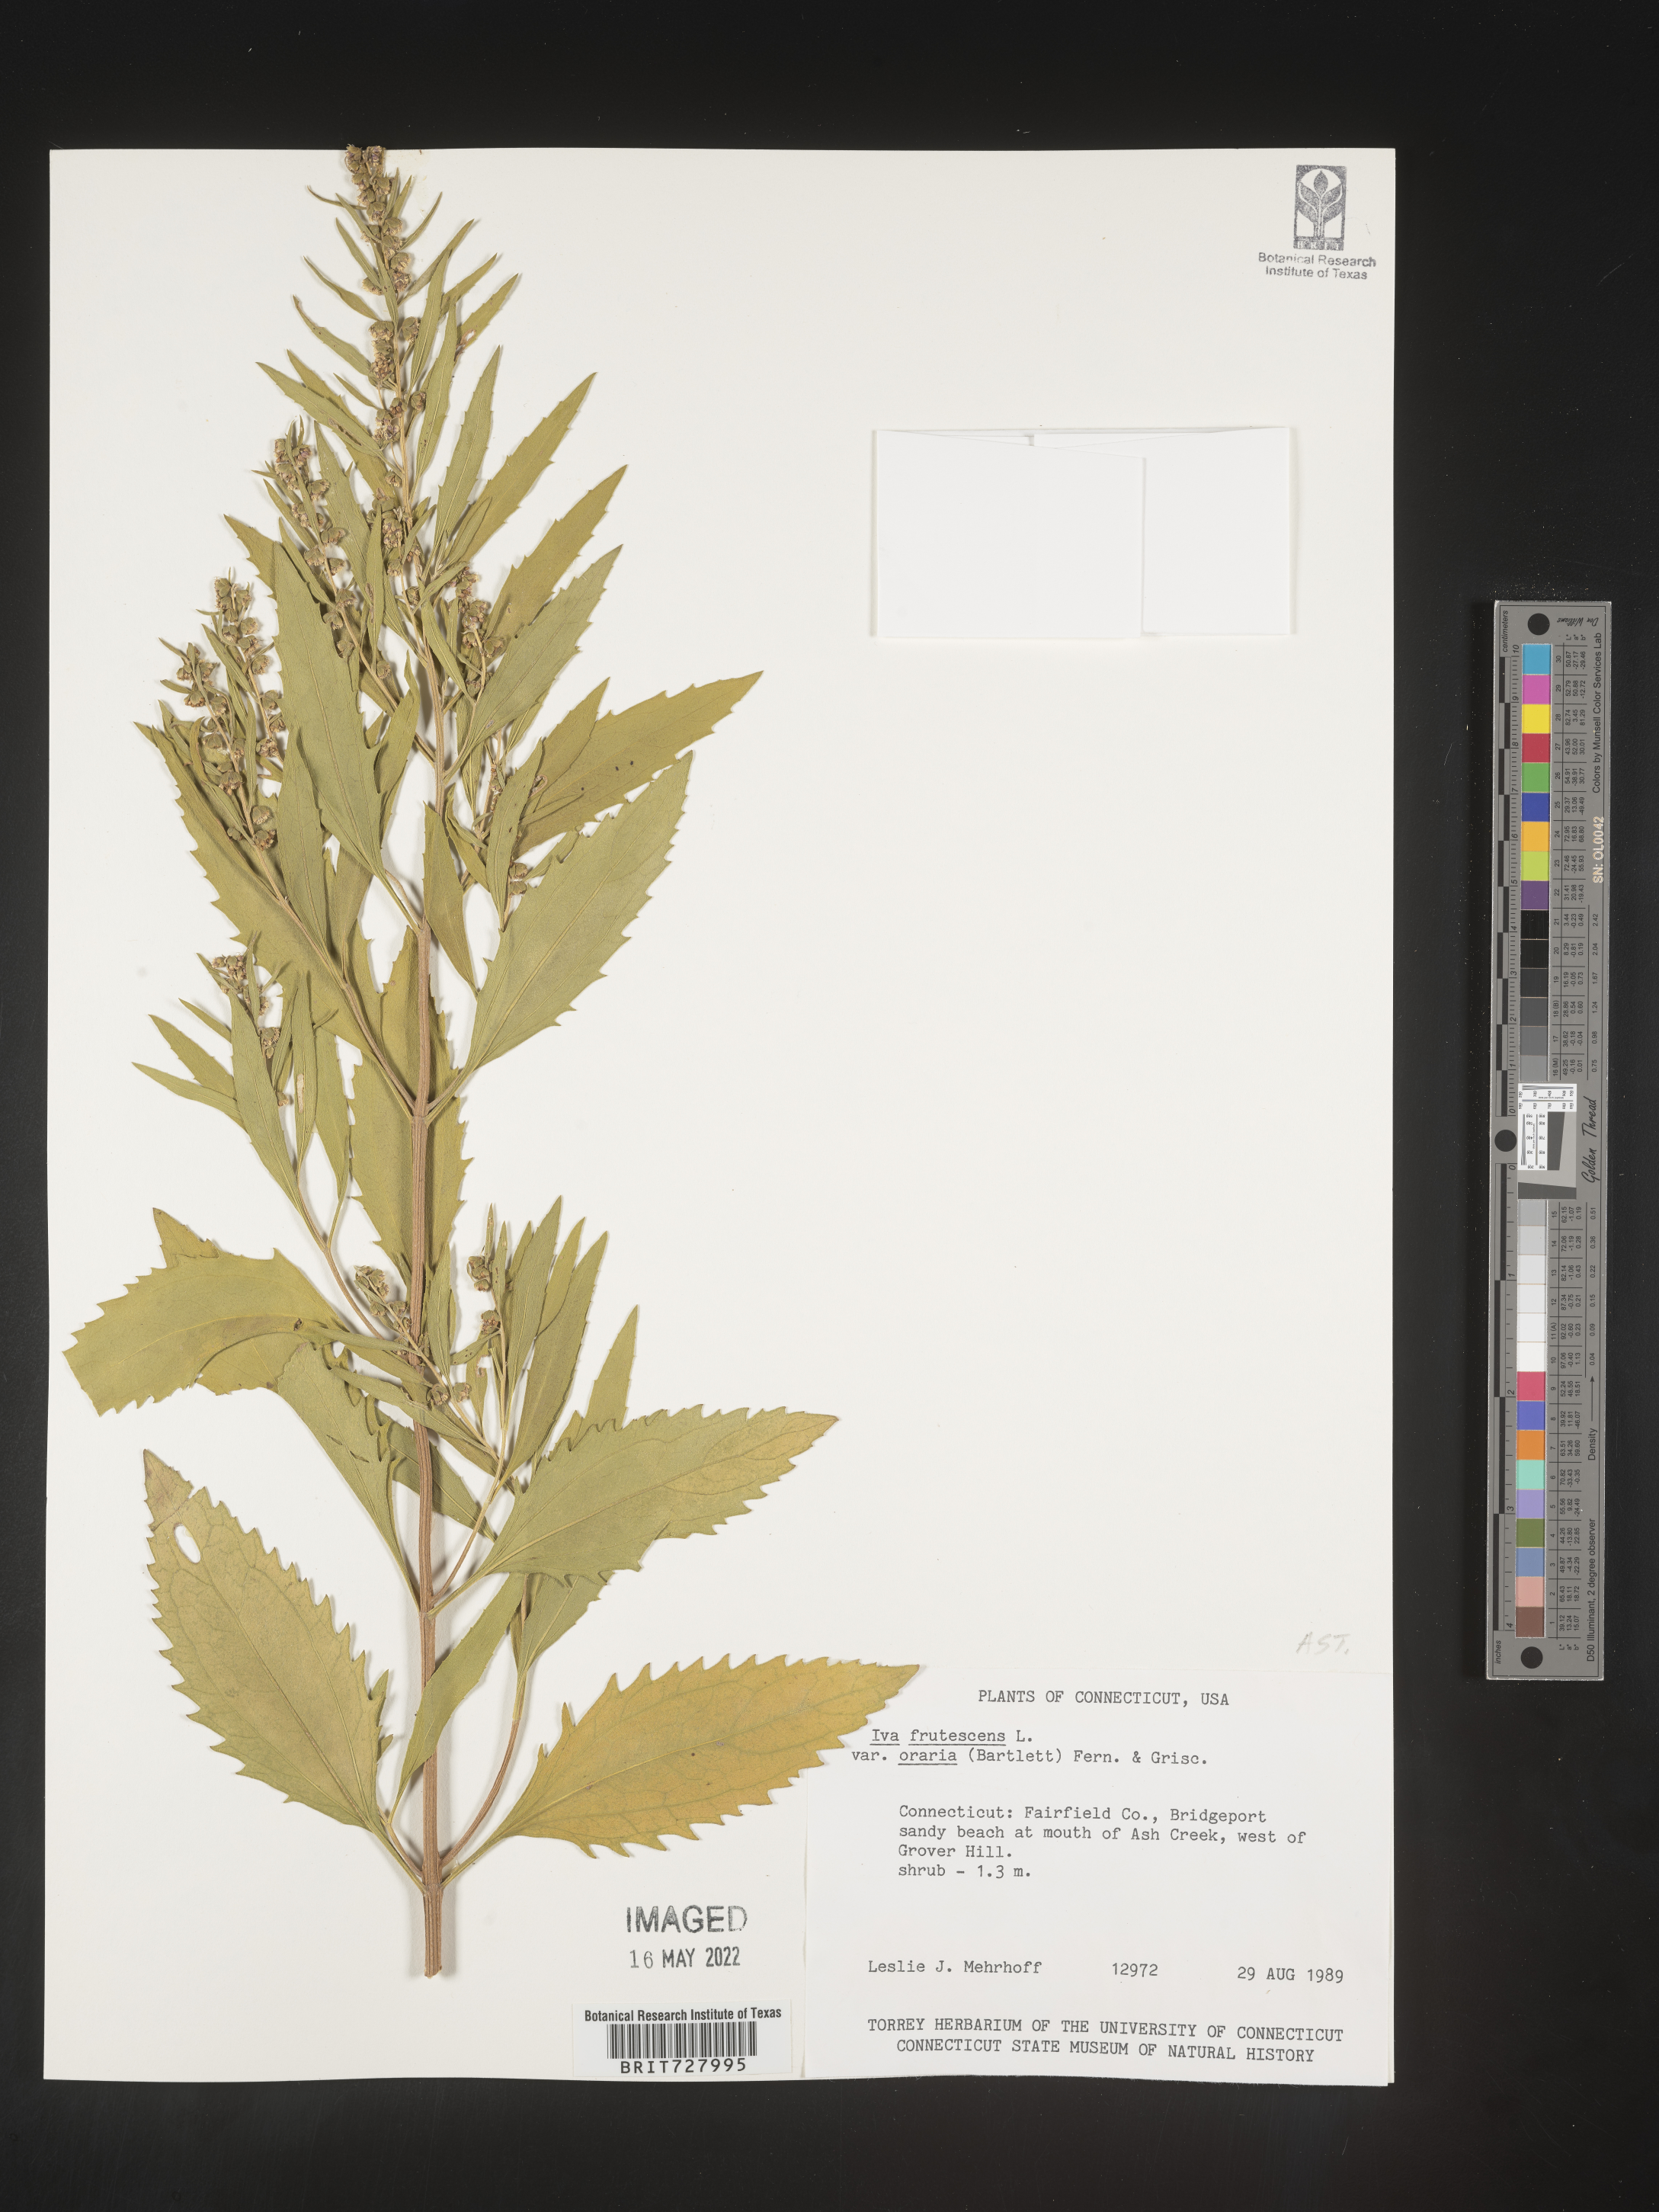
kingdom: Plantae
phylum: Tracheophyta
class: Magnoliopsida
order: Asterales
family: Asteraceae
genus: Iva
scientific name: Iva frutescens
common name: Big-leaved marsh-elder
